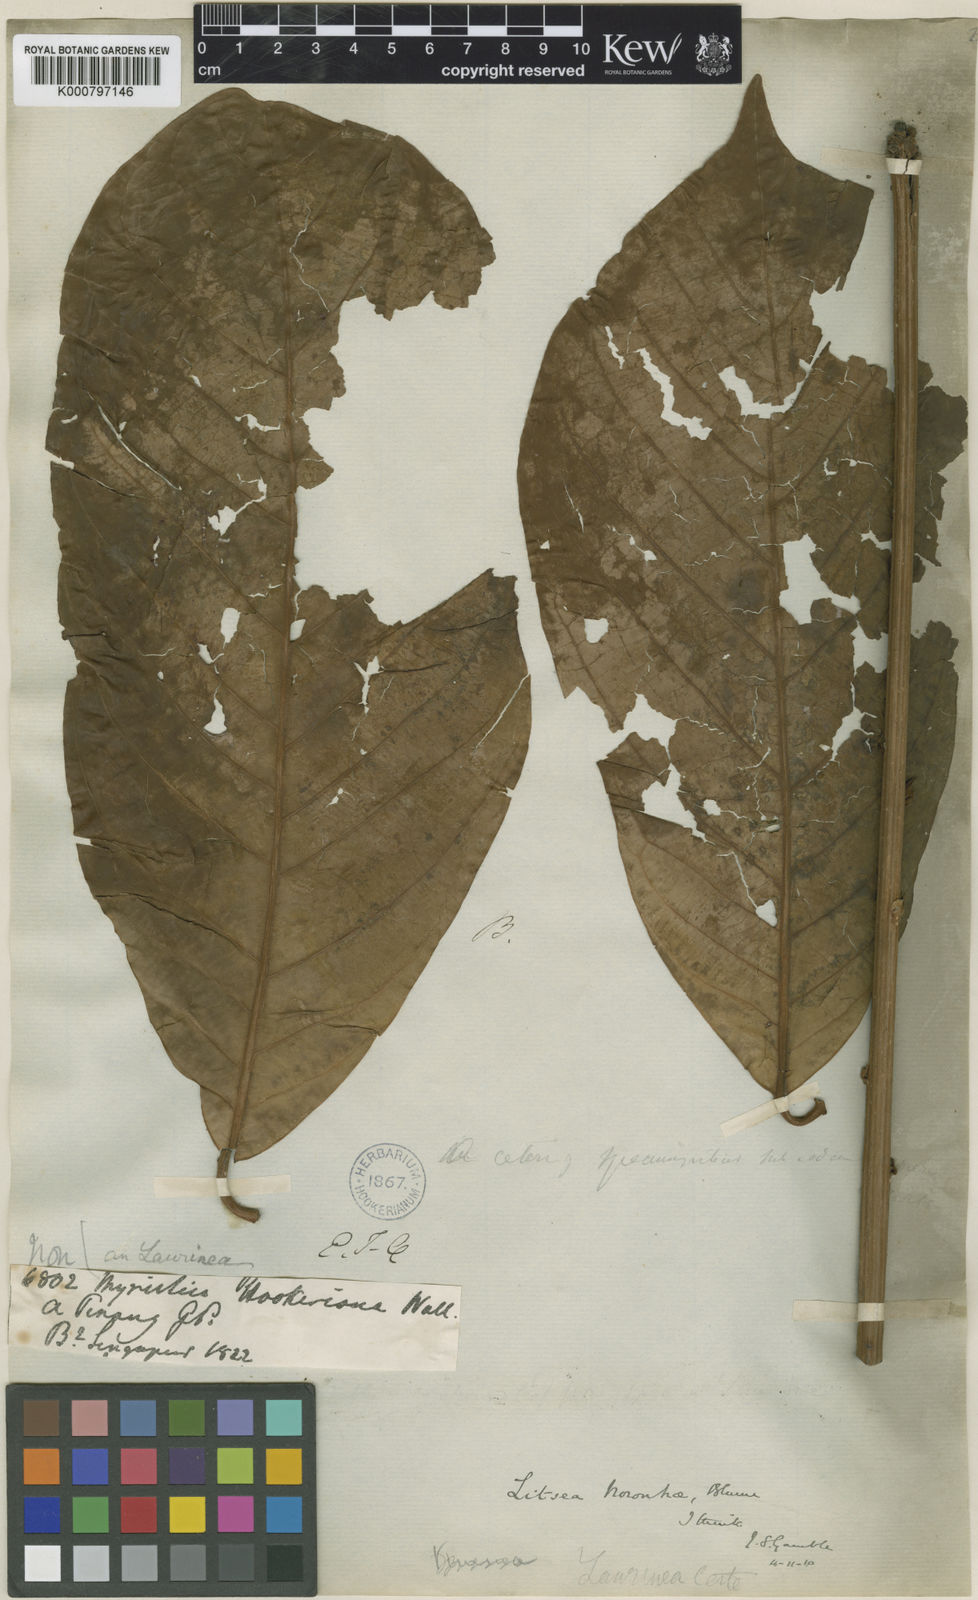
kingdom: Plantae
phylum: Tracheophyta
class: Magnoliopsida
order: Laurales
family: Lauraceae
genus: Litsea
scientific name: Litsea noronhae
